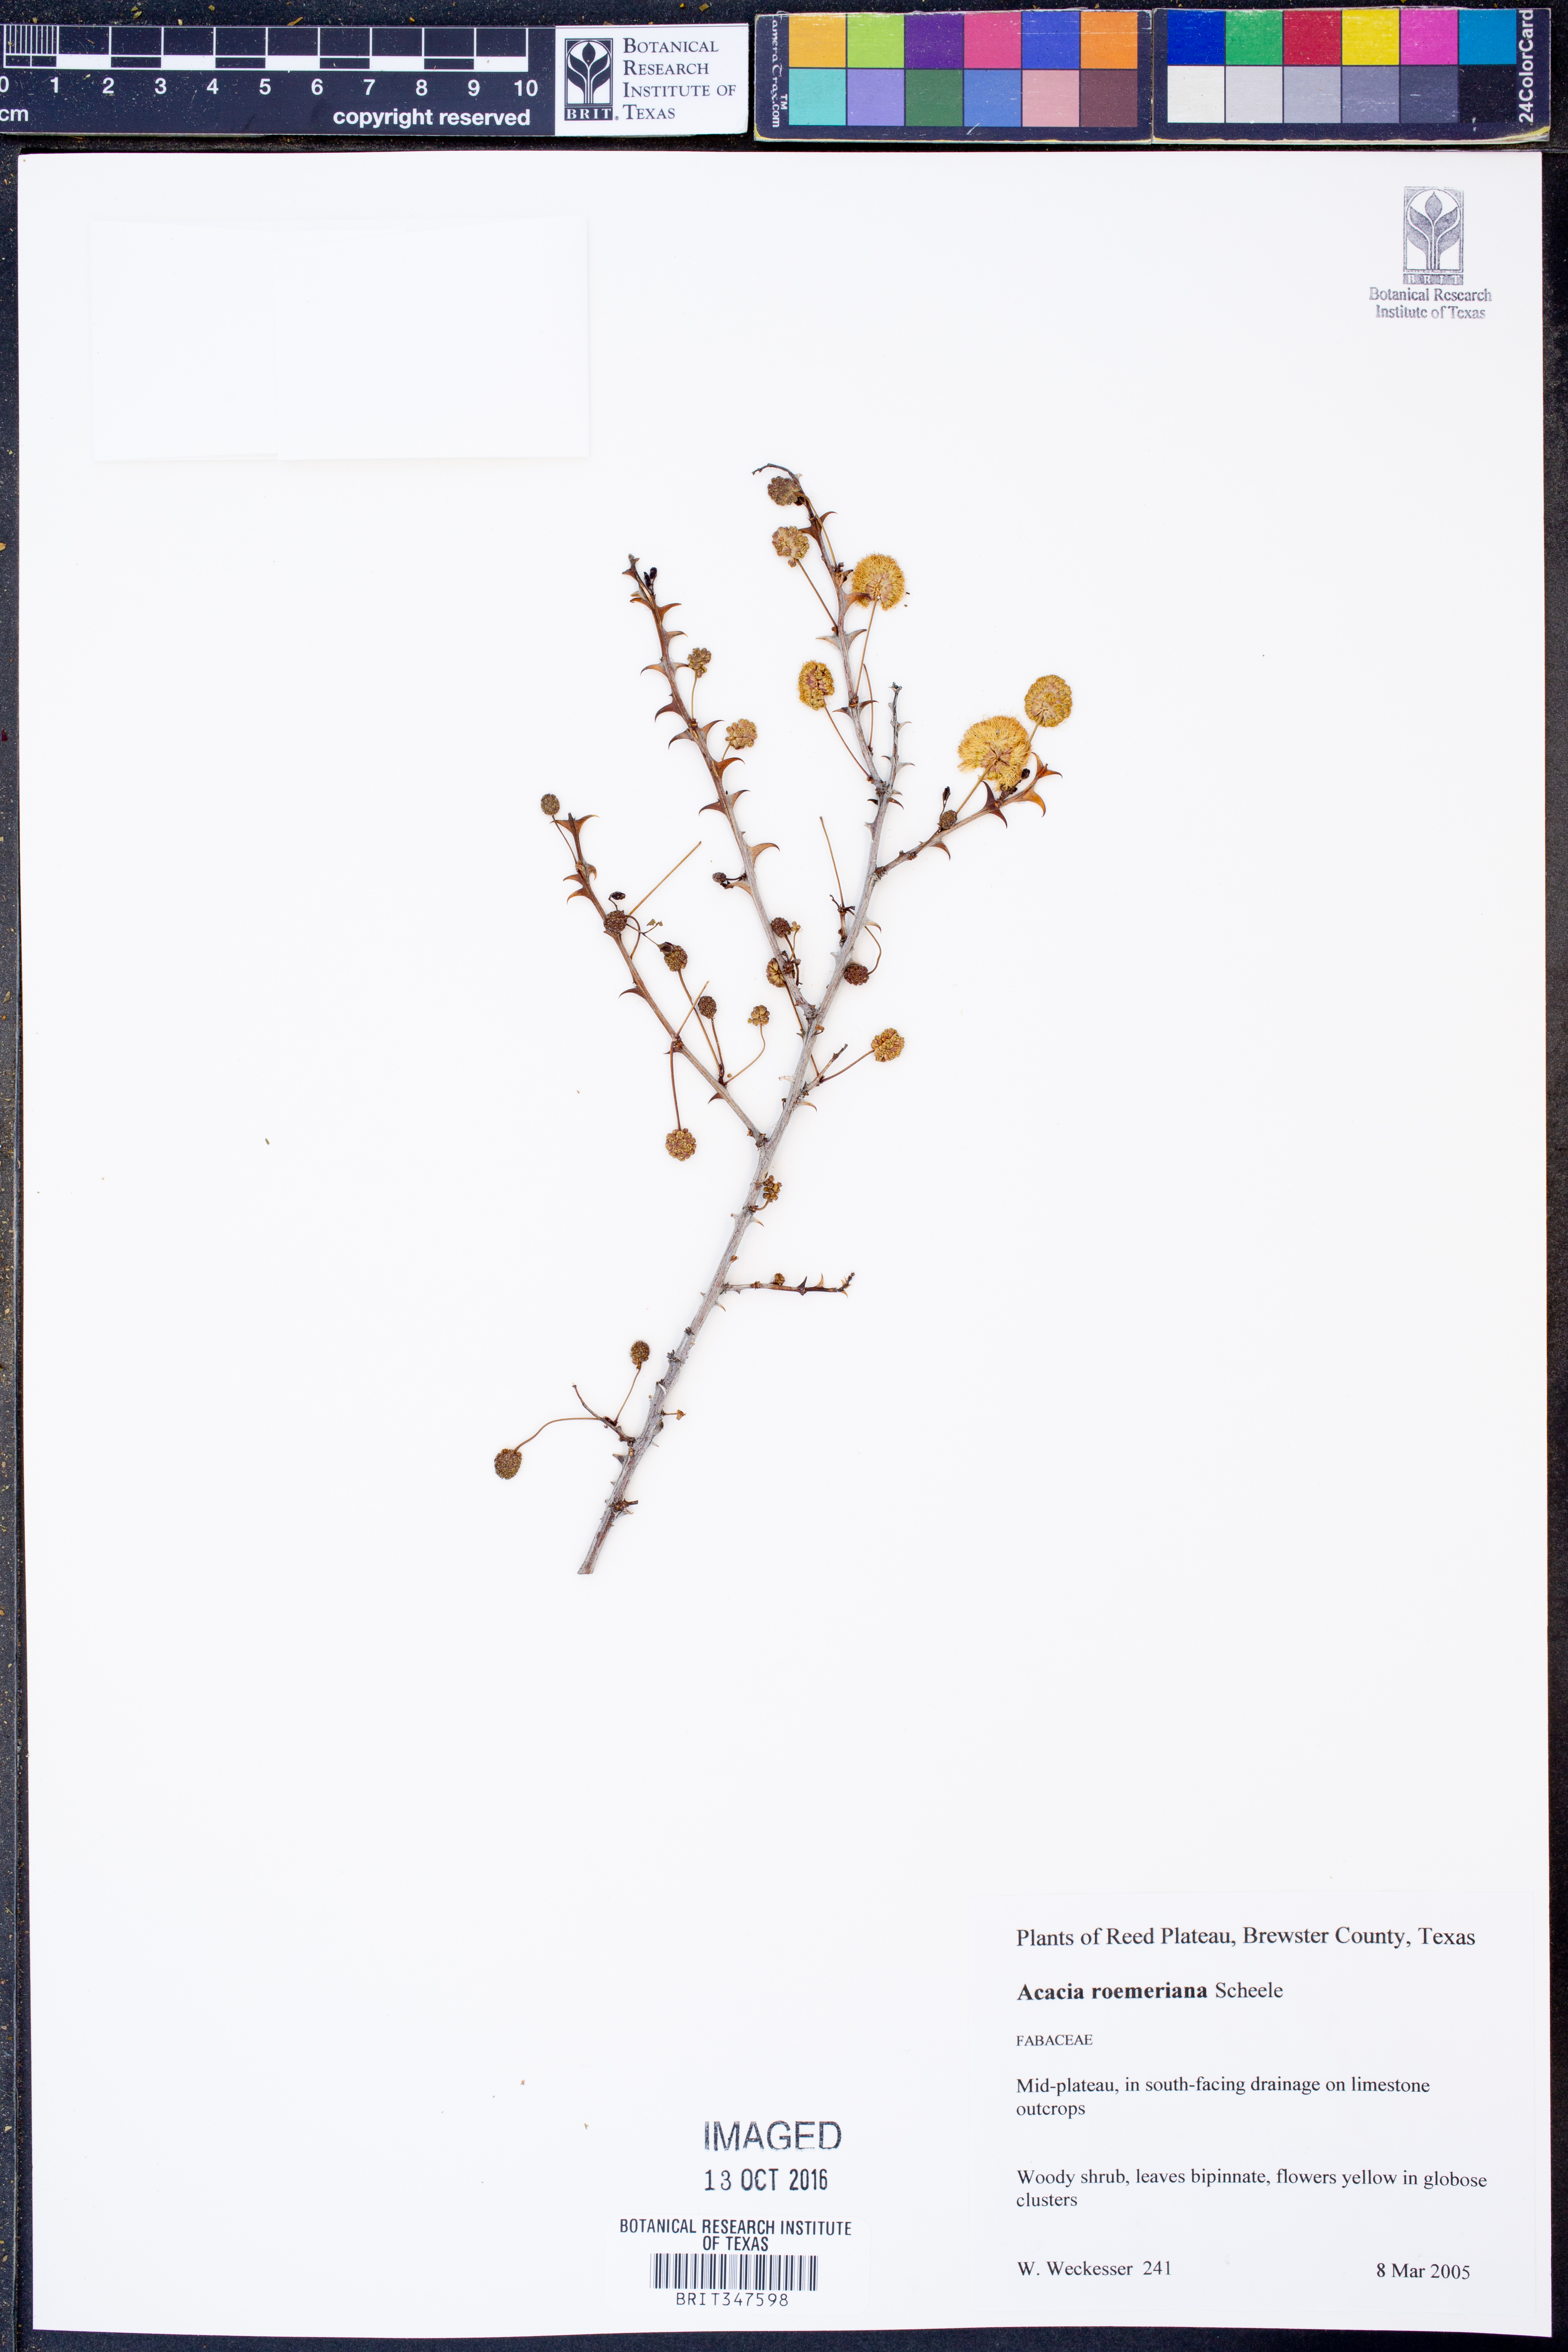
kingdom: Plantae
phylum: Tracheophyta
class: Magnoliopsida
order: Fabales
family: Fabaceae
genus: Senegalia
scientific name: Senegalia roemeriana
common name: Roemer's acacia
